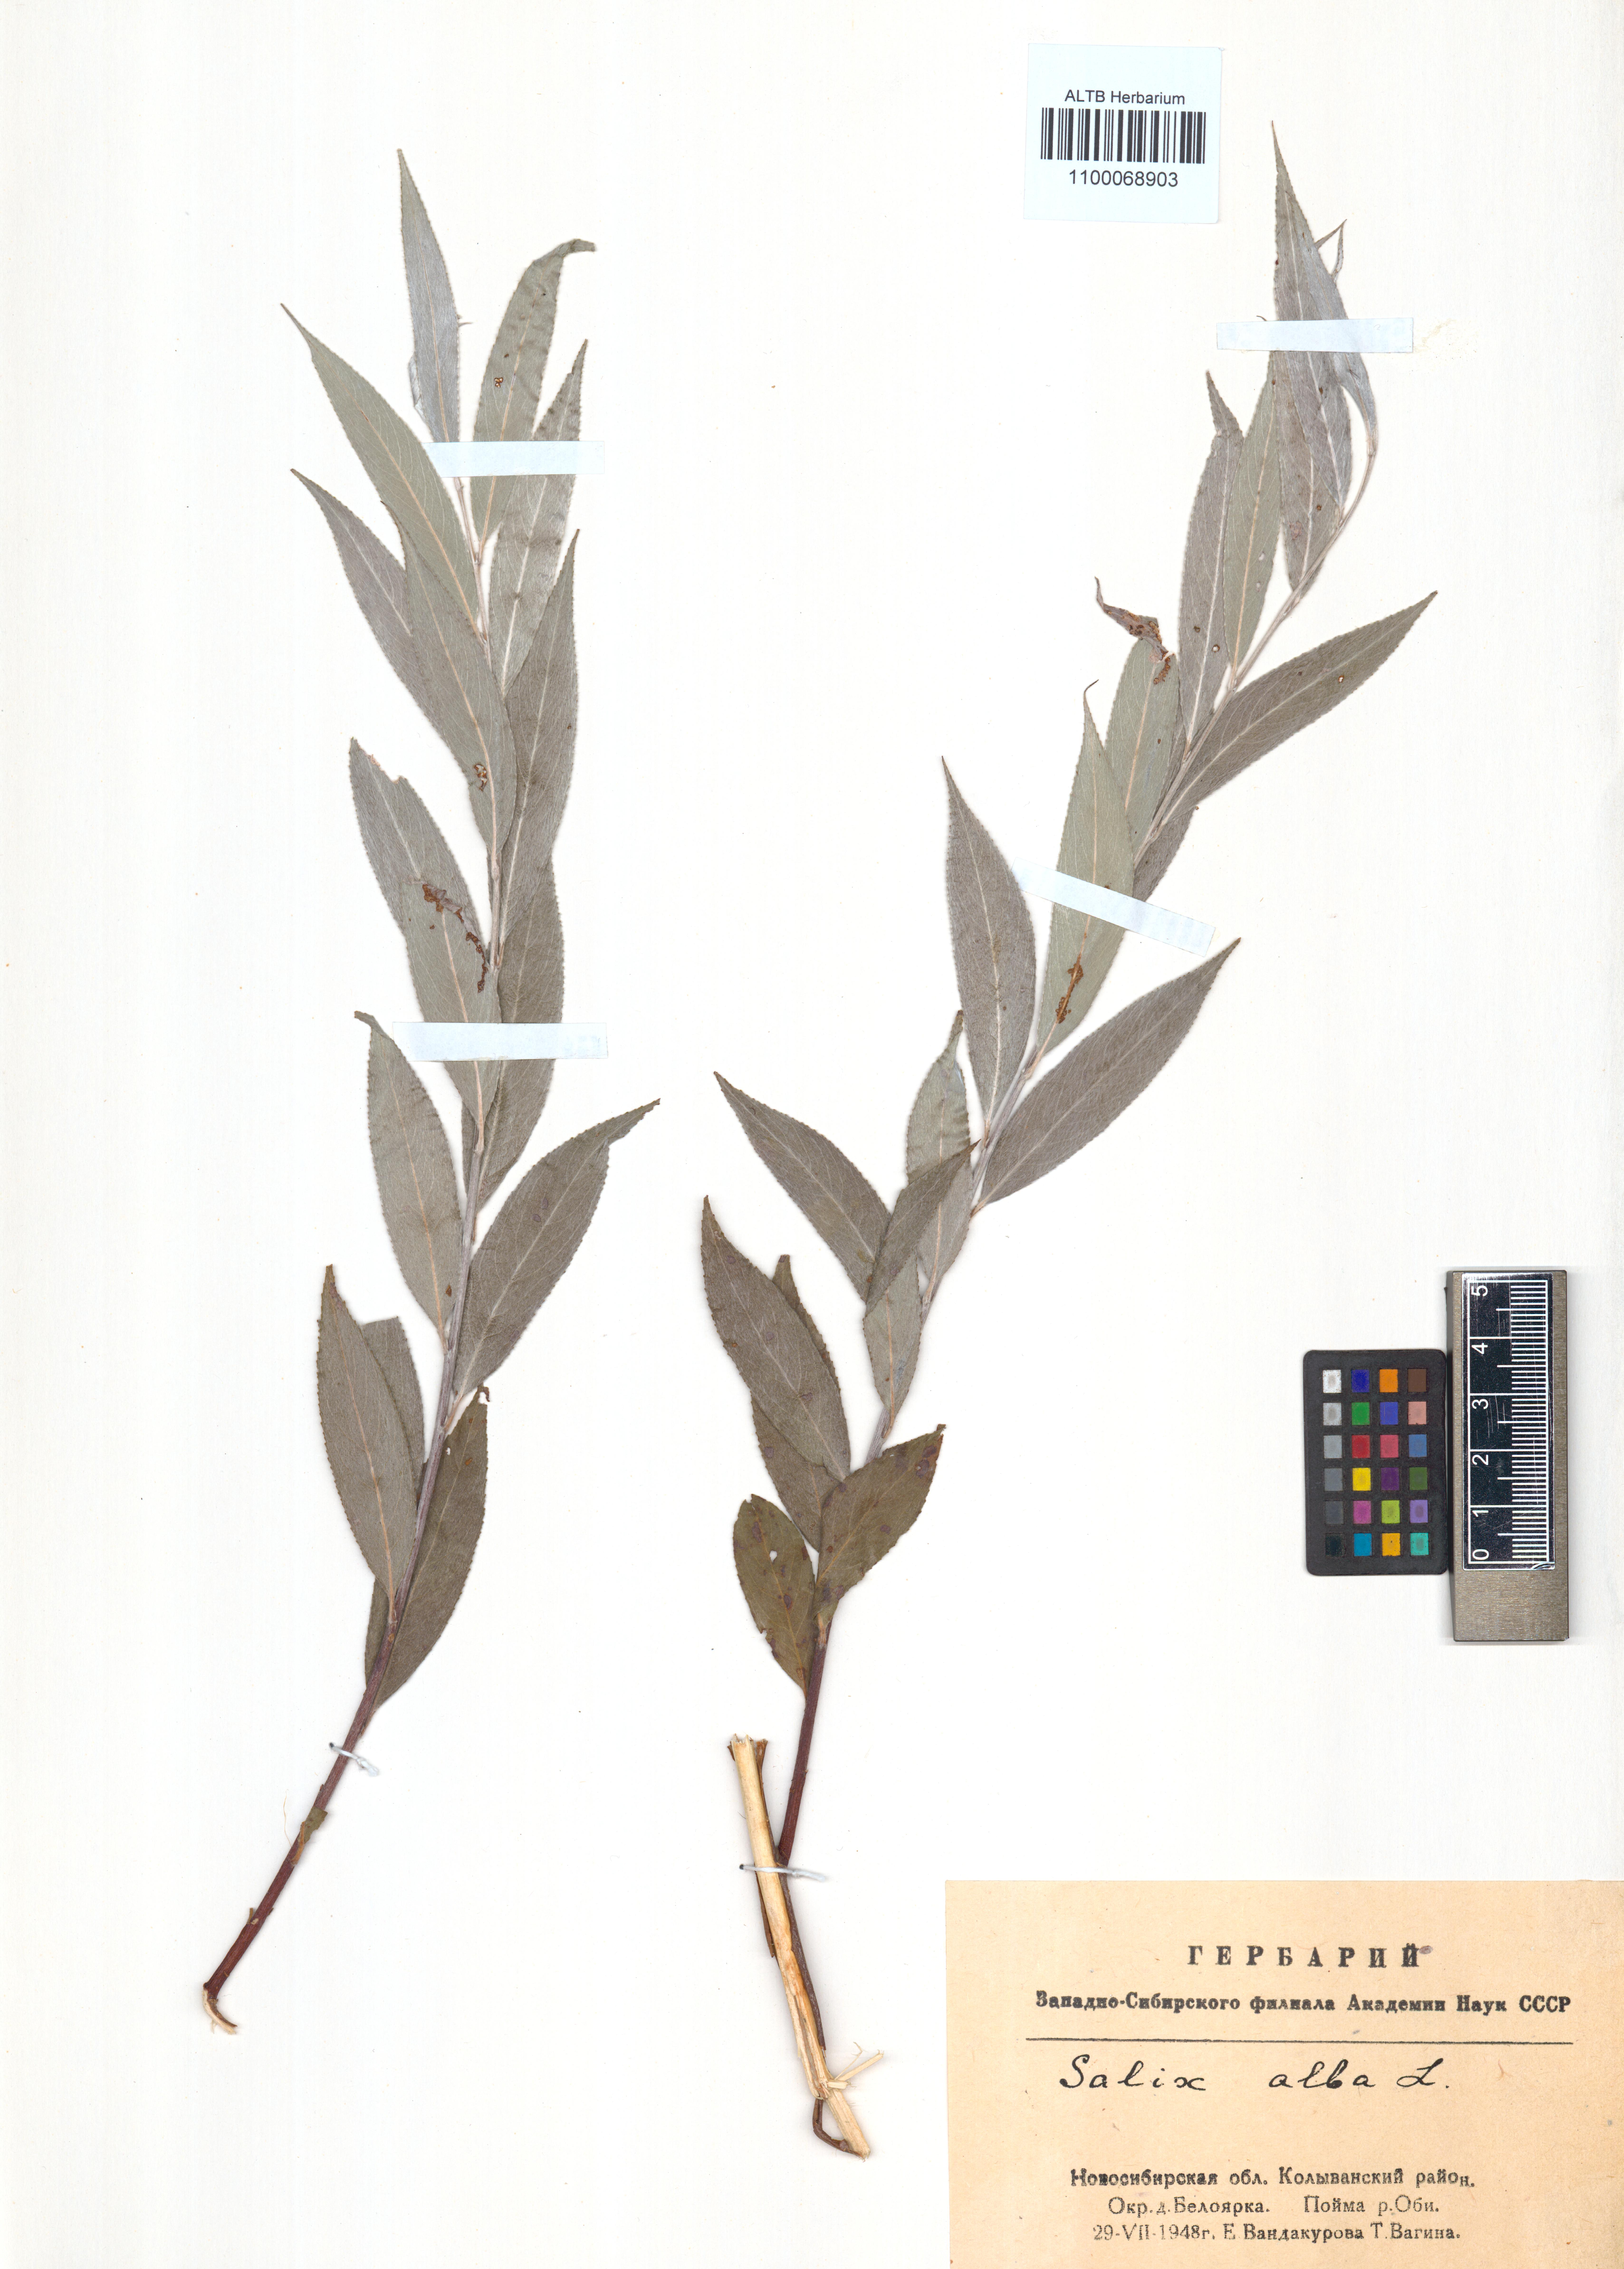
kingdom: Plantae
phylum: Tracheophyta
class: Magnoliopsida
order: Malpighiales
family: Salicaceae
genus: Salix
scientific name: Salix alba
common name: White willow
